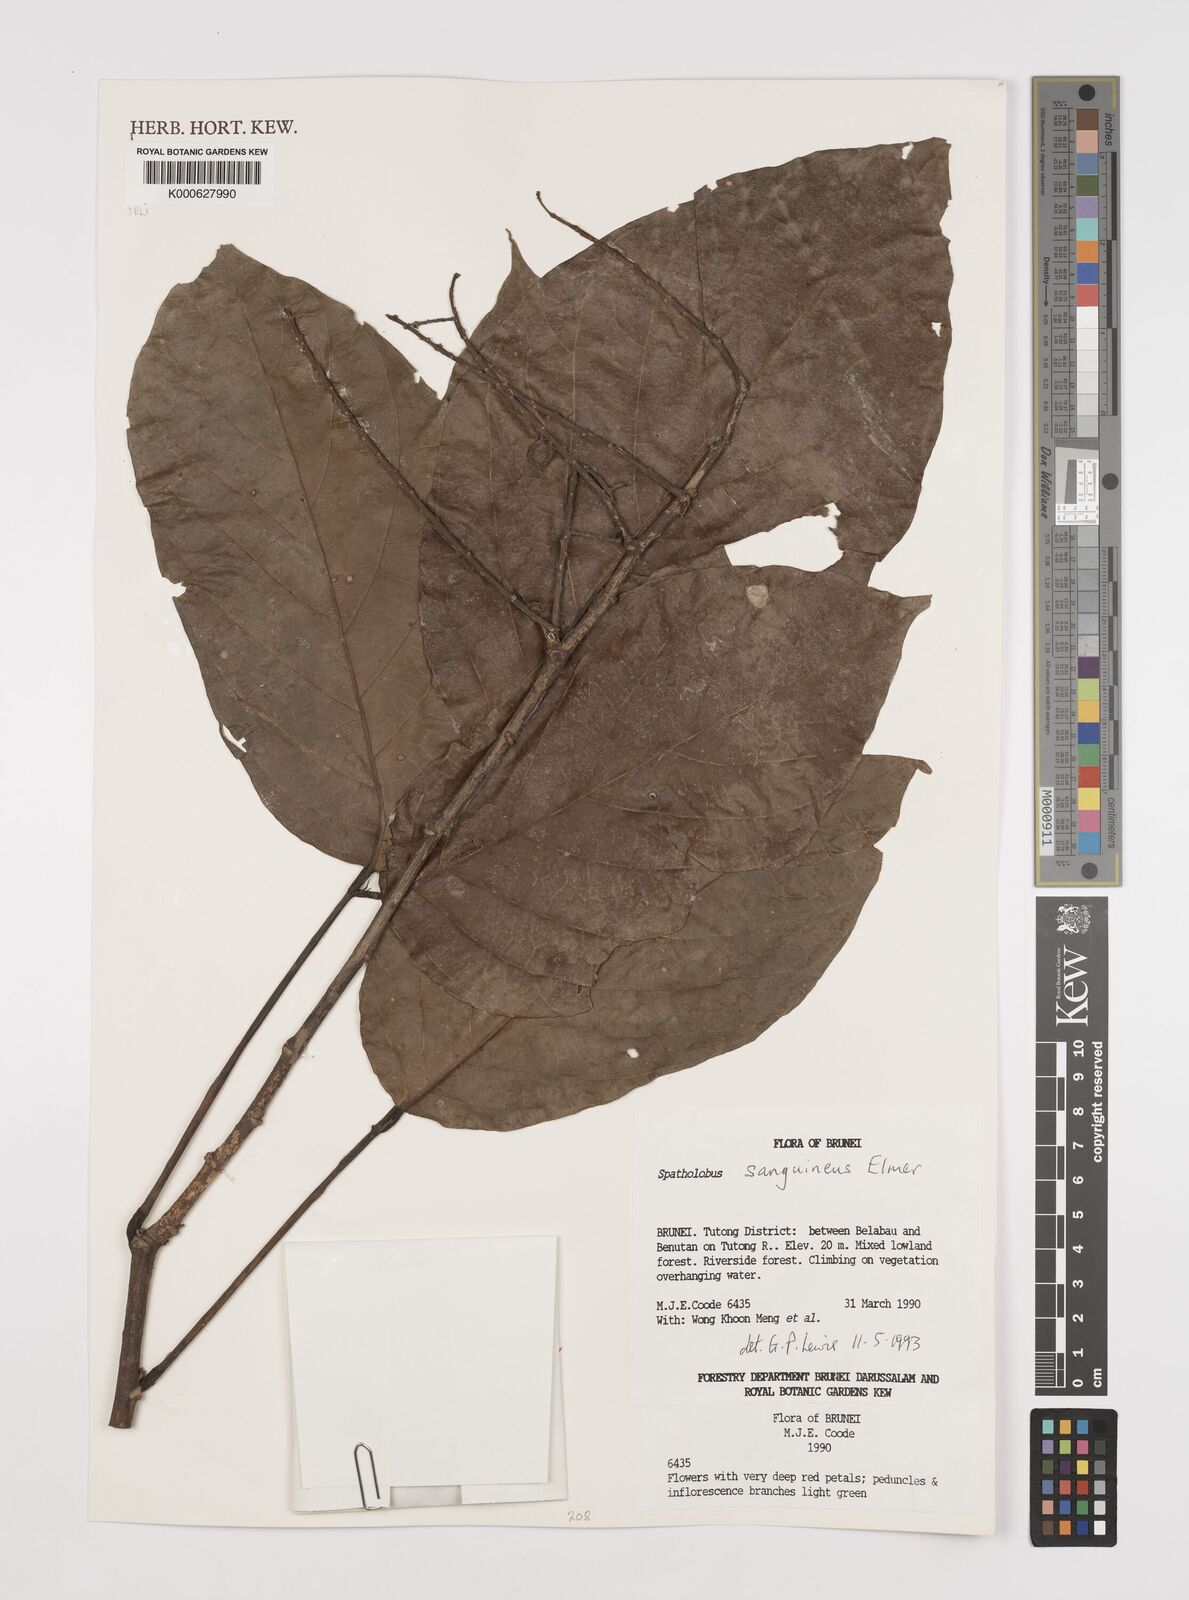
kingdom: Plantae
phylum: Tracheophyta
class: Magnoliopsida
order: Fabales
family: Fabaceae
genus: Spatholobus
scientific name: Spatholobus
